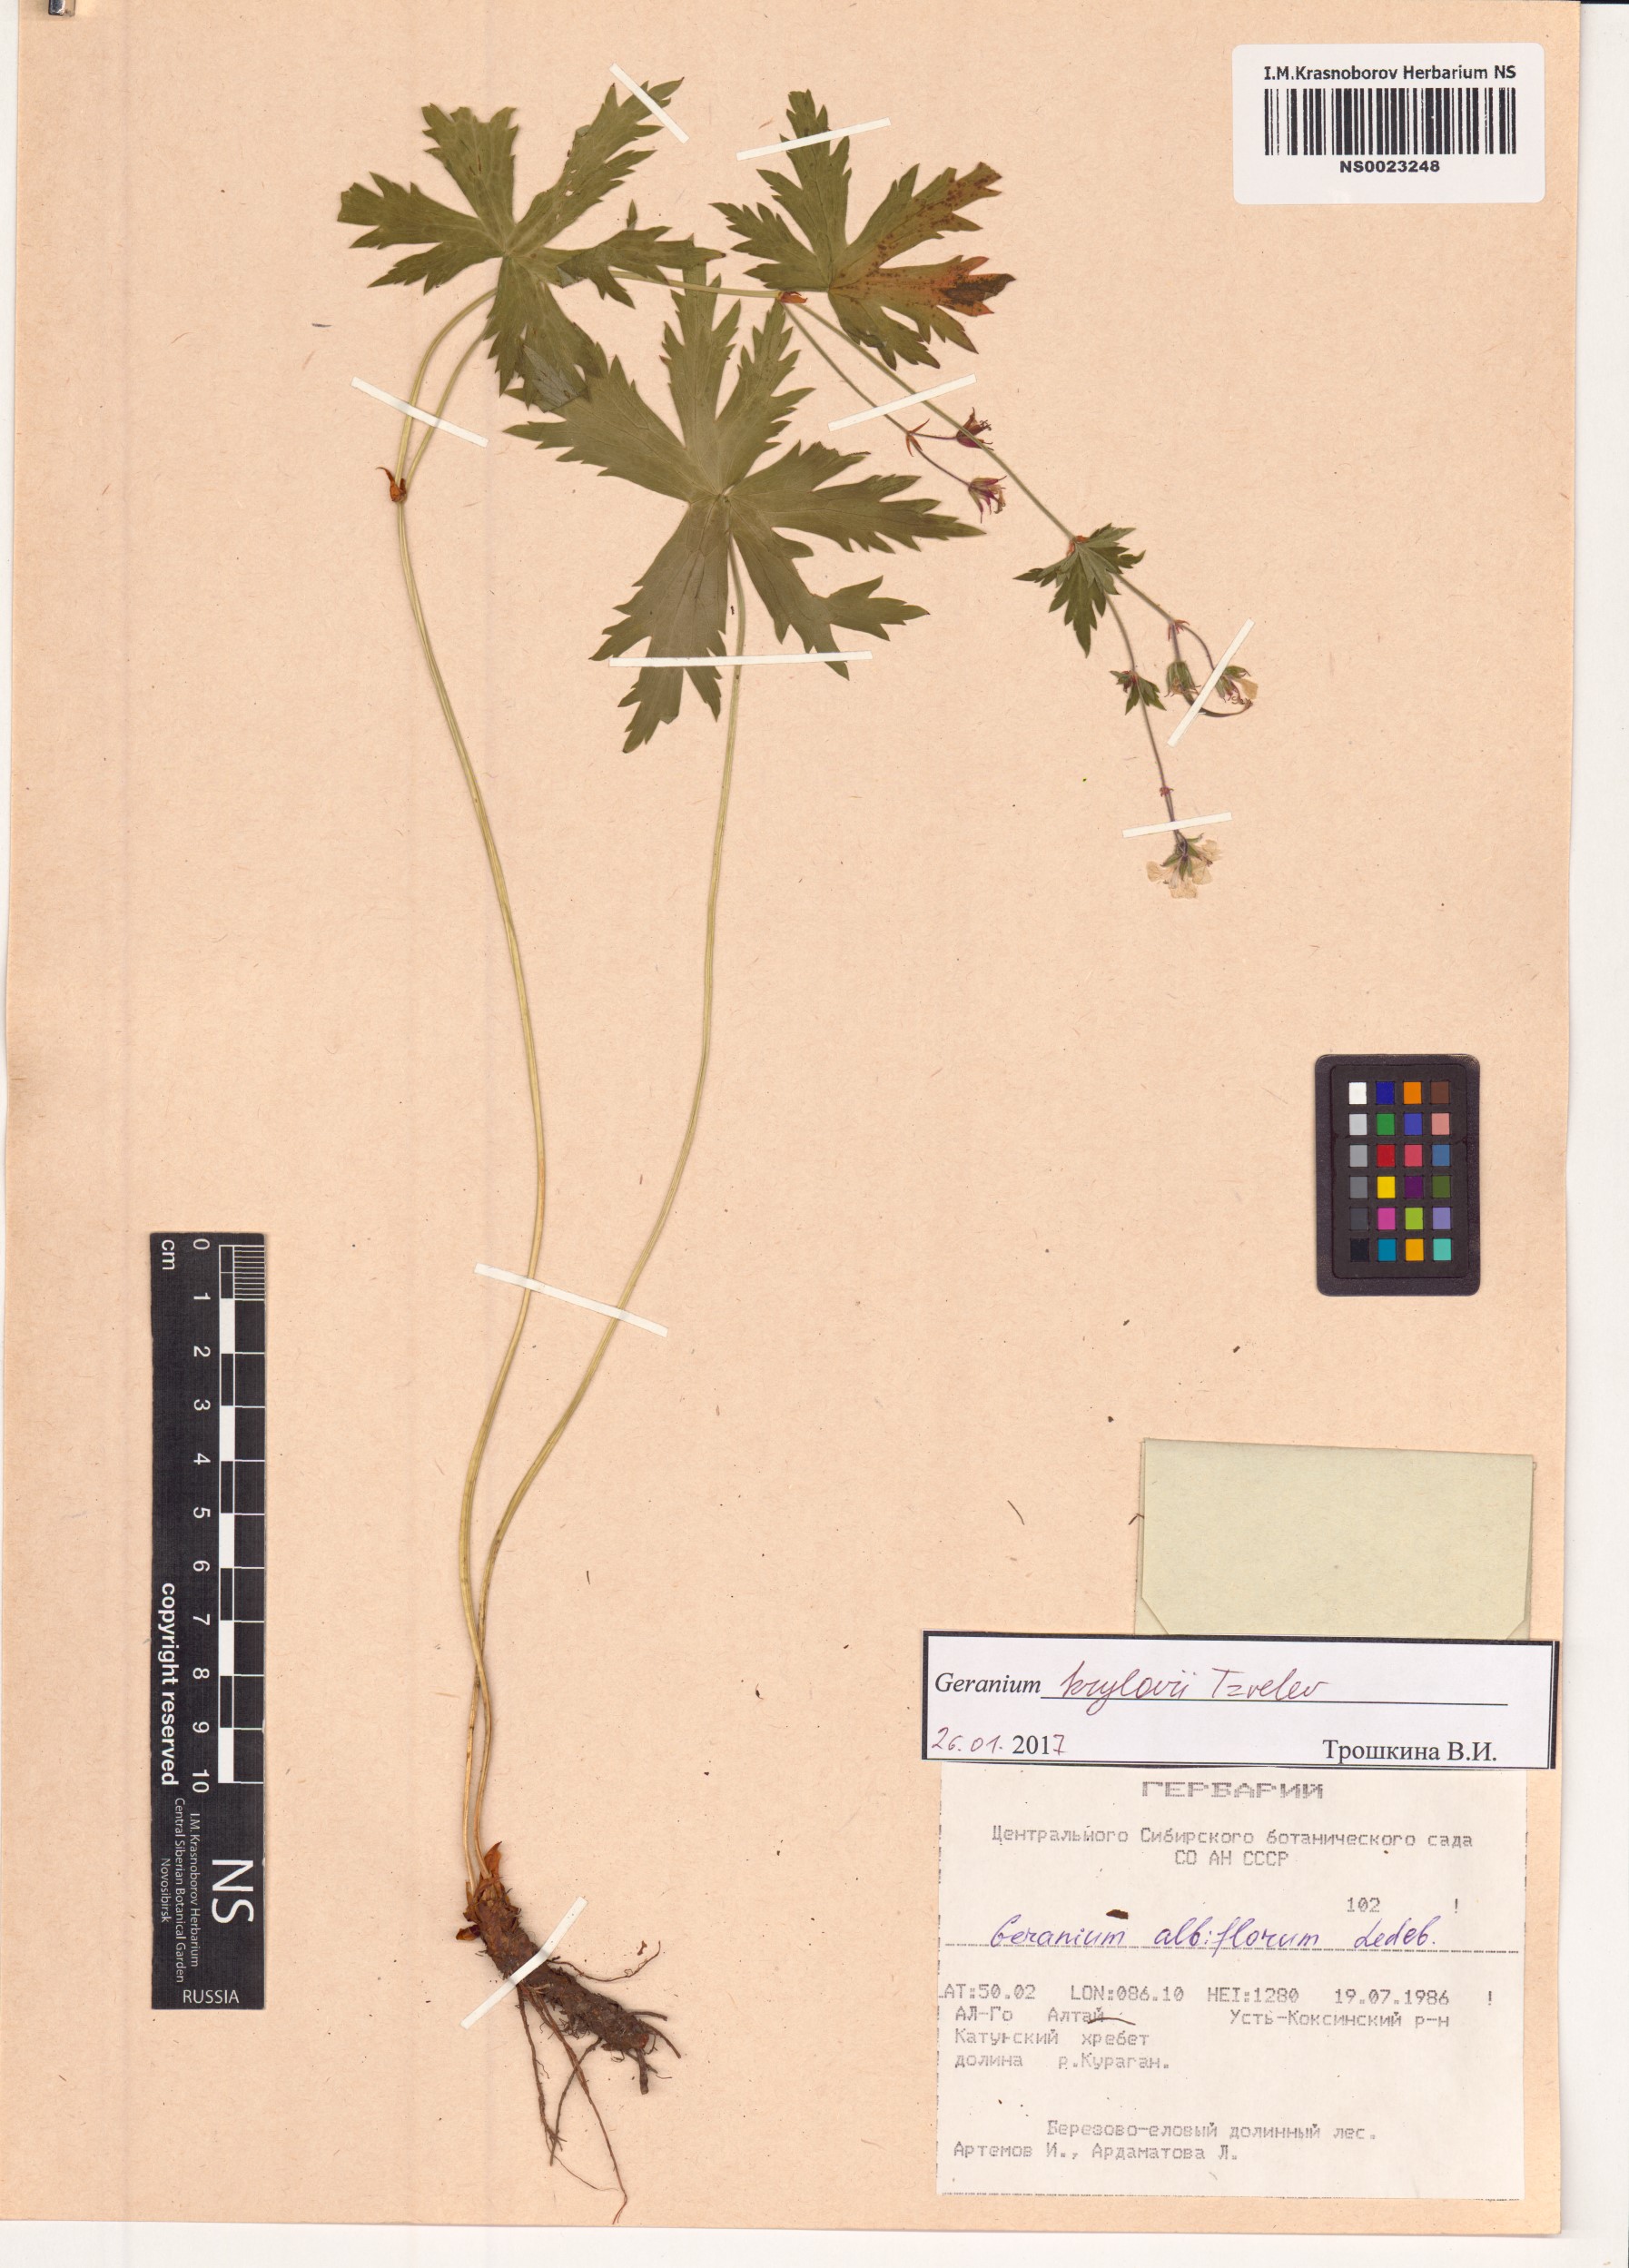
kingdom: Plantae
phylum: Tracheophyta
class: Magnoliopsida
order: Geraniales
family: Geraniaceae
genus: Geranium
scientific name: Geranium sylvaticum
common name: Wood crane's-bill
